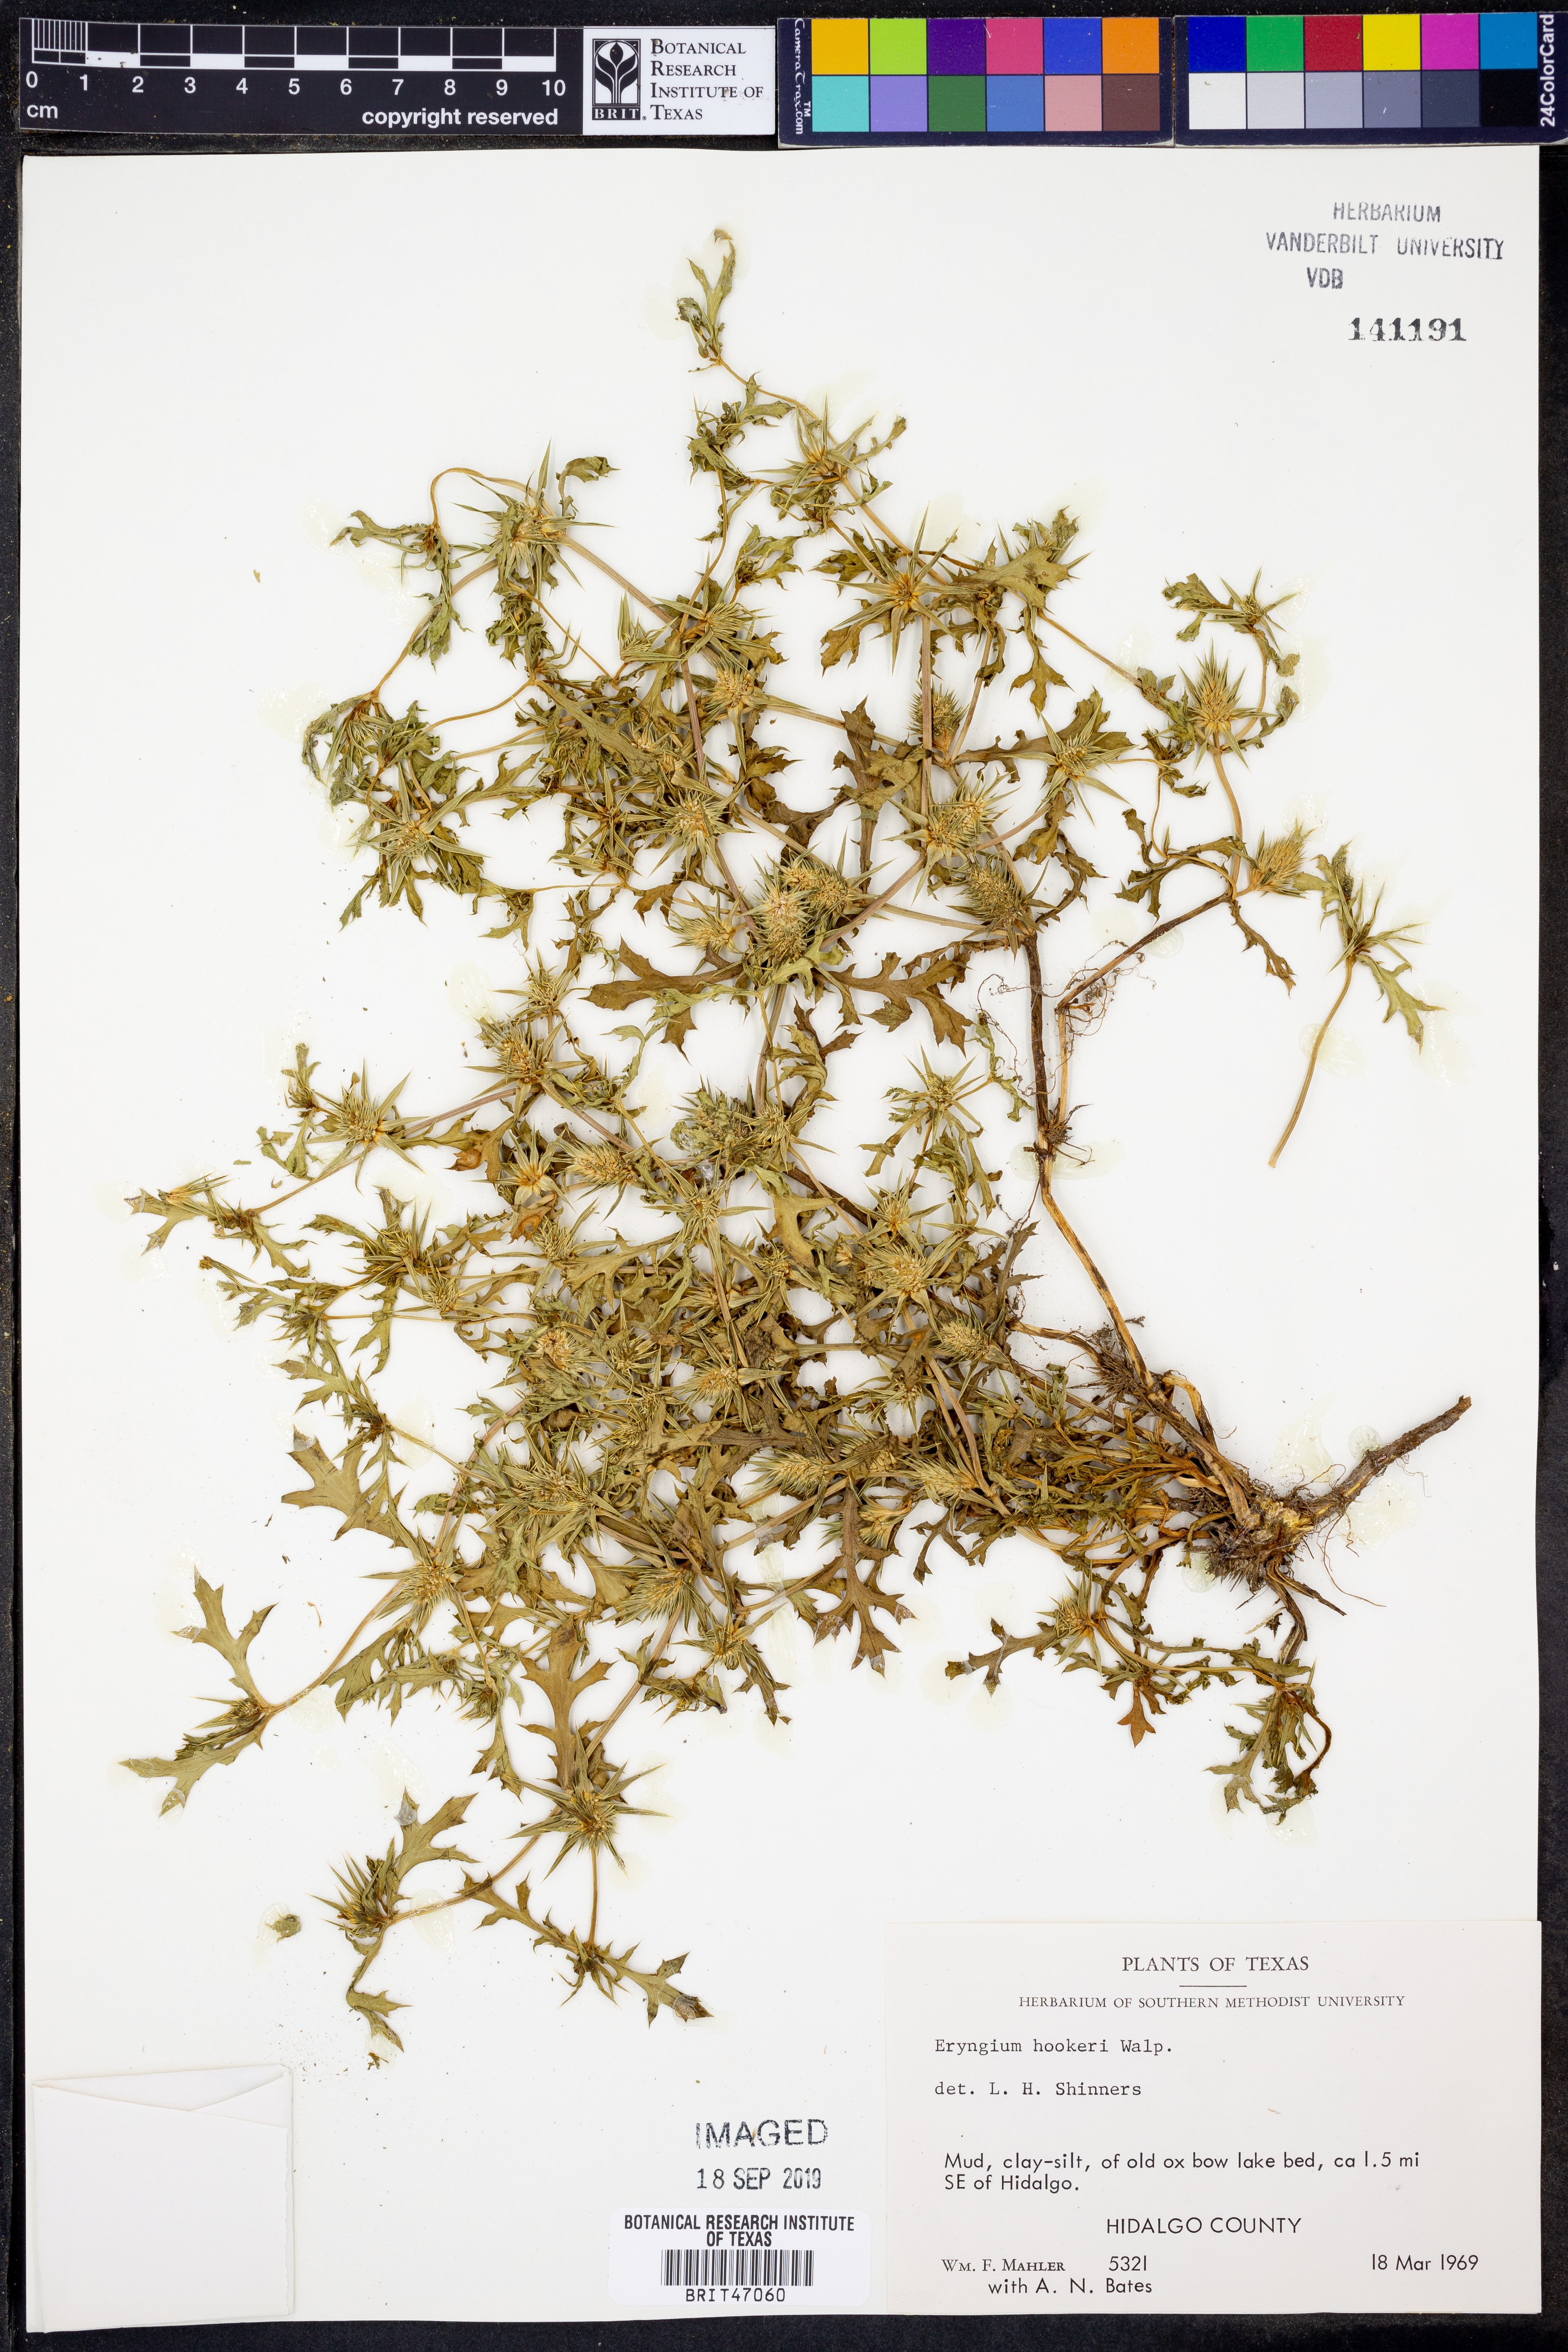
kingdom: Plantae
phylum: Tracheophyta
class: Magnoliopsida
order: Apiales
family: Apiaceae
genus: Eryngium
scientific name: Eryngium hookeri
